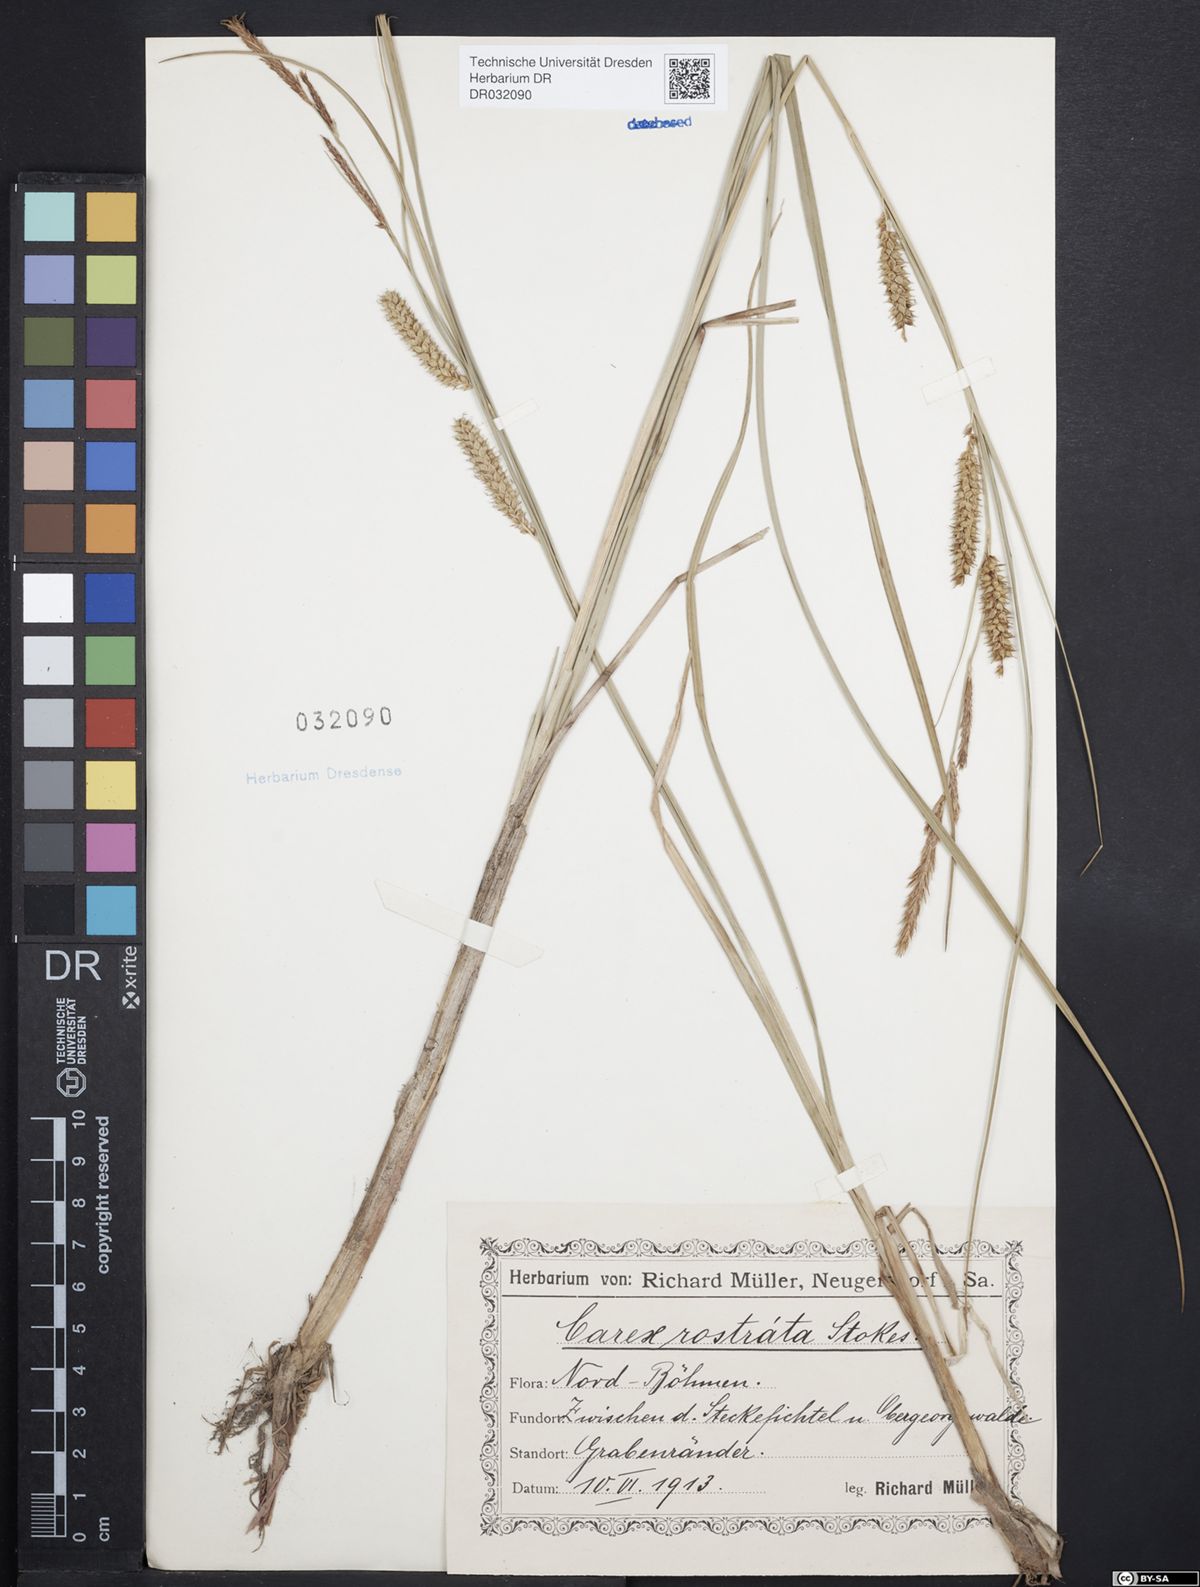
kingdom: Plantae
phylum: Tracheophyta
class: Liliopsida
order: Poales
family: Cyperaceae
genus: Carex
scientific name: Carex rostrata
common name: Bottle sedge
